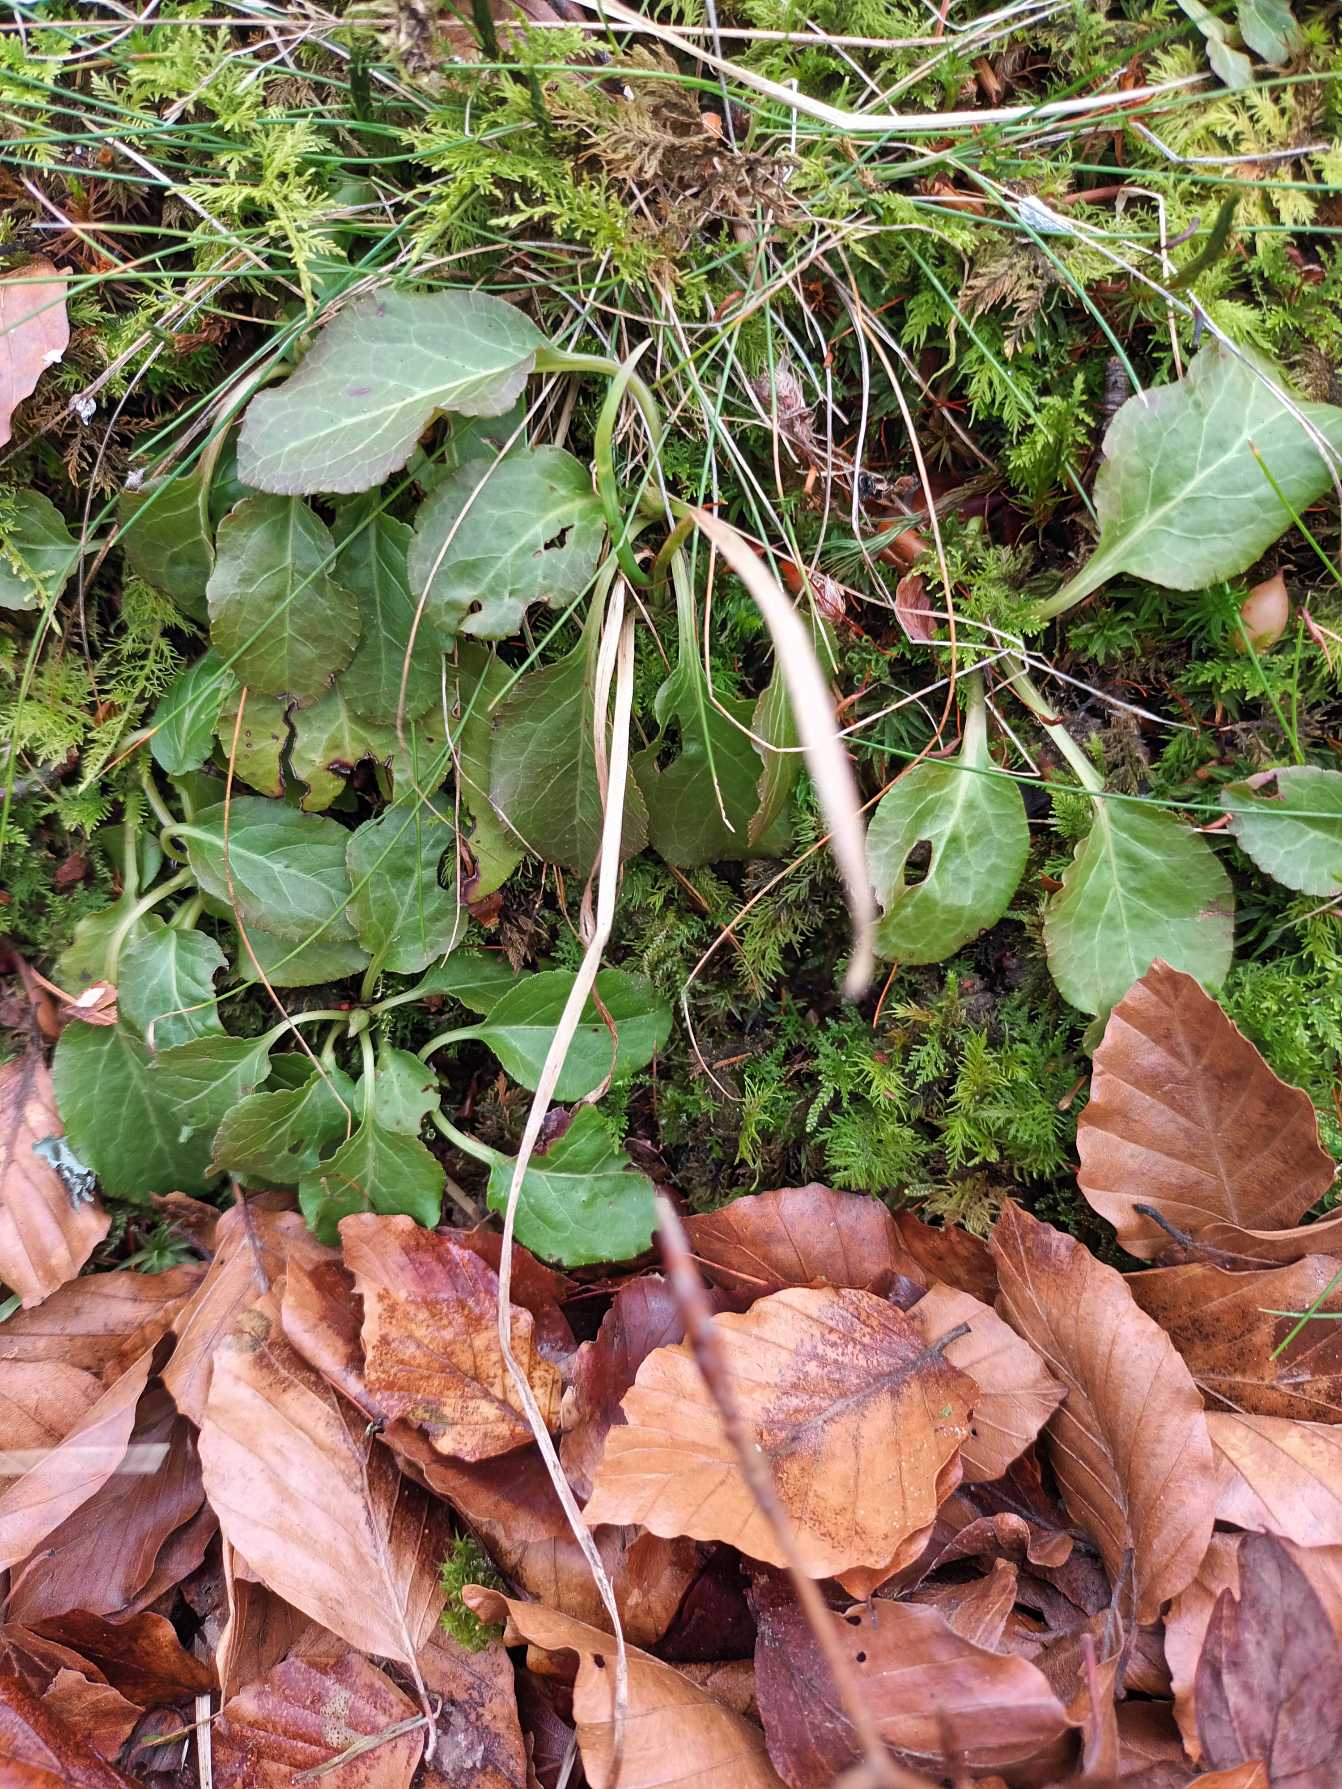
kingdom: Plantae
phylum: Tracheophyta
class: Magnoliopsida
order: Ericales
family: Ericaceae
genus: Pyrola
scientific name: Pyrola
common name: Vintergrøn (Pyrola-slægten)
